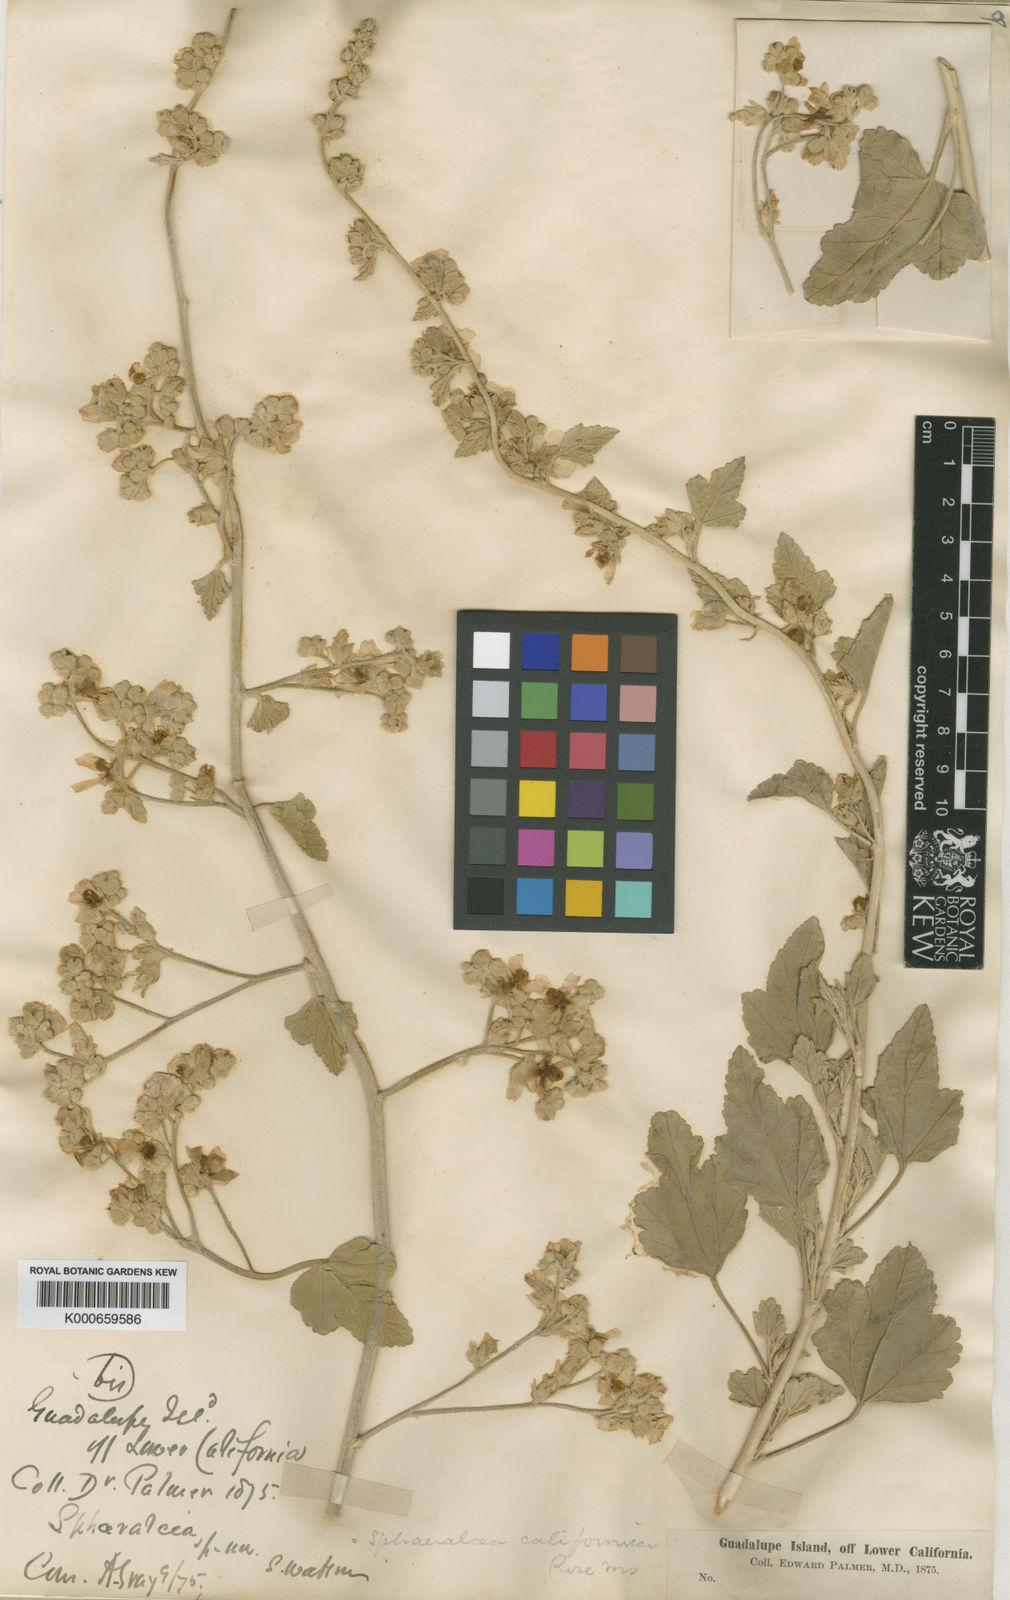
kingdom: Plantae
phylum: Tracheophyta
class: Magnoliopsida
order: Malvales
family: Malvaceae
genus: Sphaeralcea
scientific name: Sphaeralcea sulphurea
